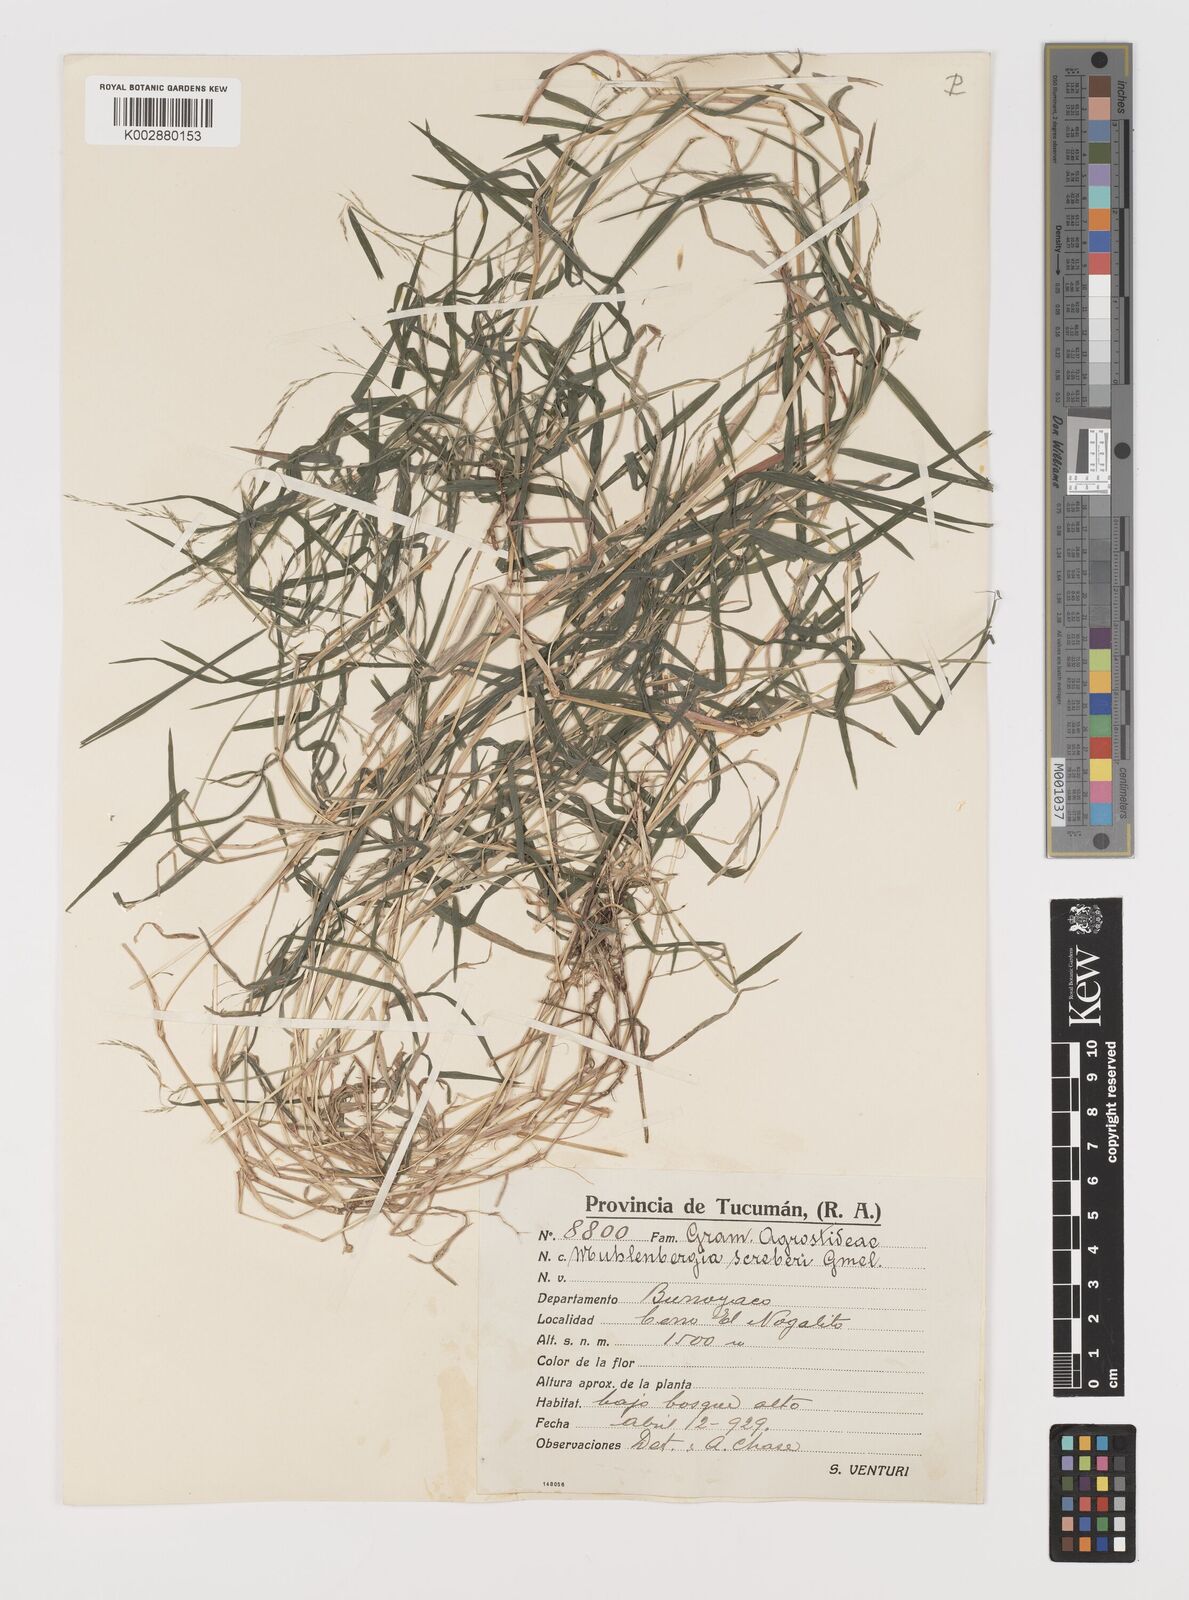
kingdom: Plantae
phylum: Tracheophyta
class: Liliopsida
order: Poales
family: Poaceae
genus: Muhlenbergia
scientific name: Muhlenbergia schreberi
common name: Nimblewill
